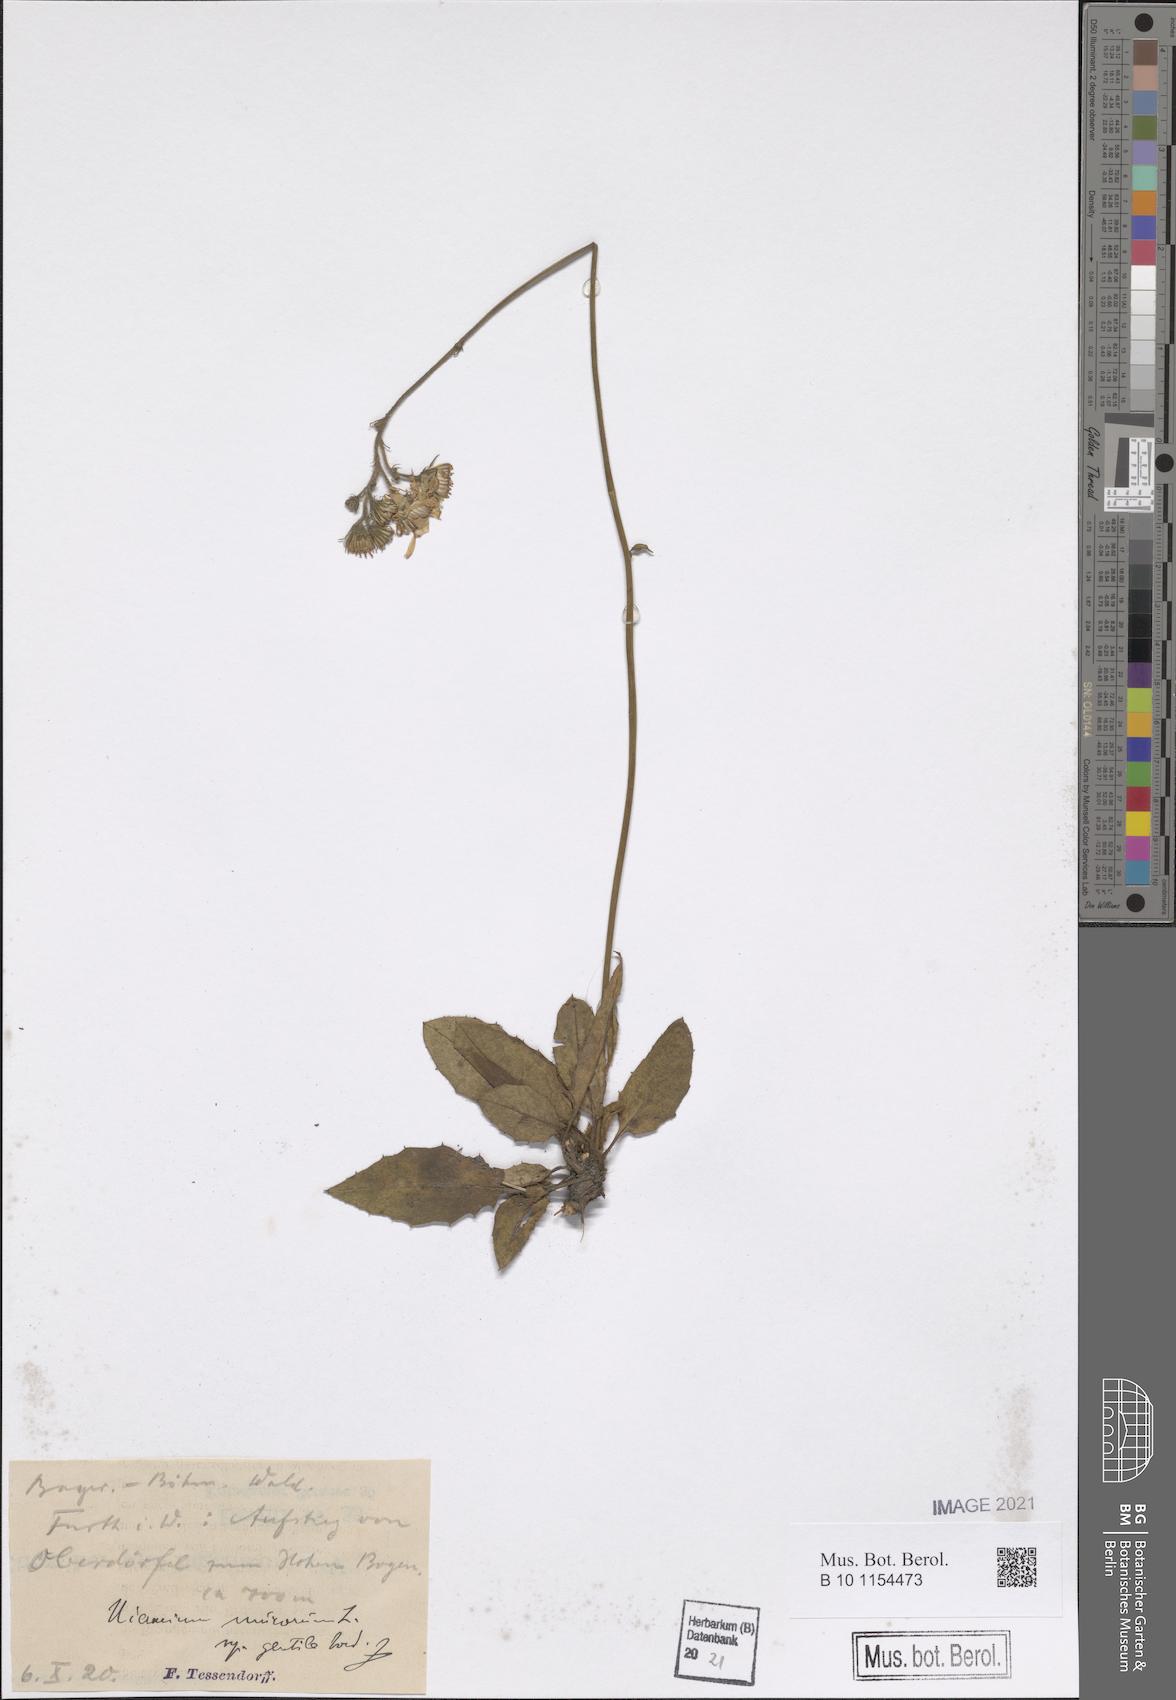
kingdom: Plantae
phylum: Tracheophyta
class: Magnoliopsida
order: Asterales
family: Asteraceae
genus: Hieracium
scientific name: Hieracium murorum
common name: Wall hawkweed
